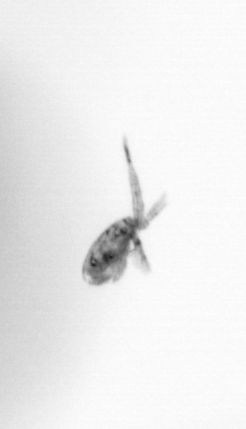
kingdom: Animalia
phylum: Arthropoda
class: Copepoda
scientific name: Copepoda
